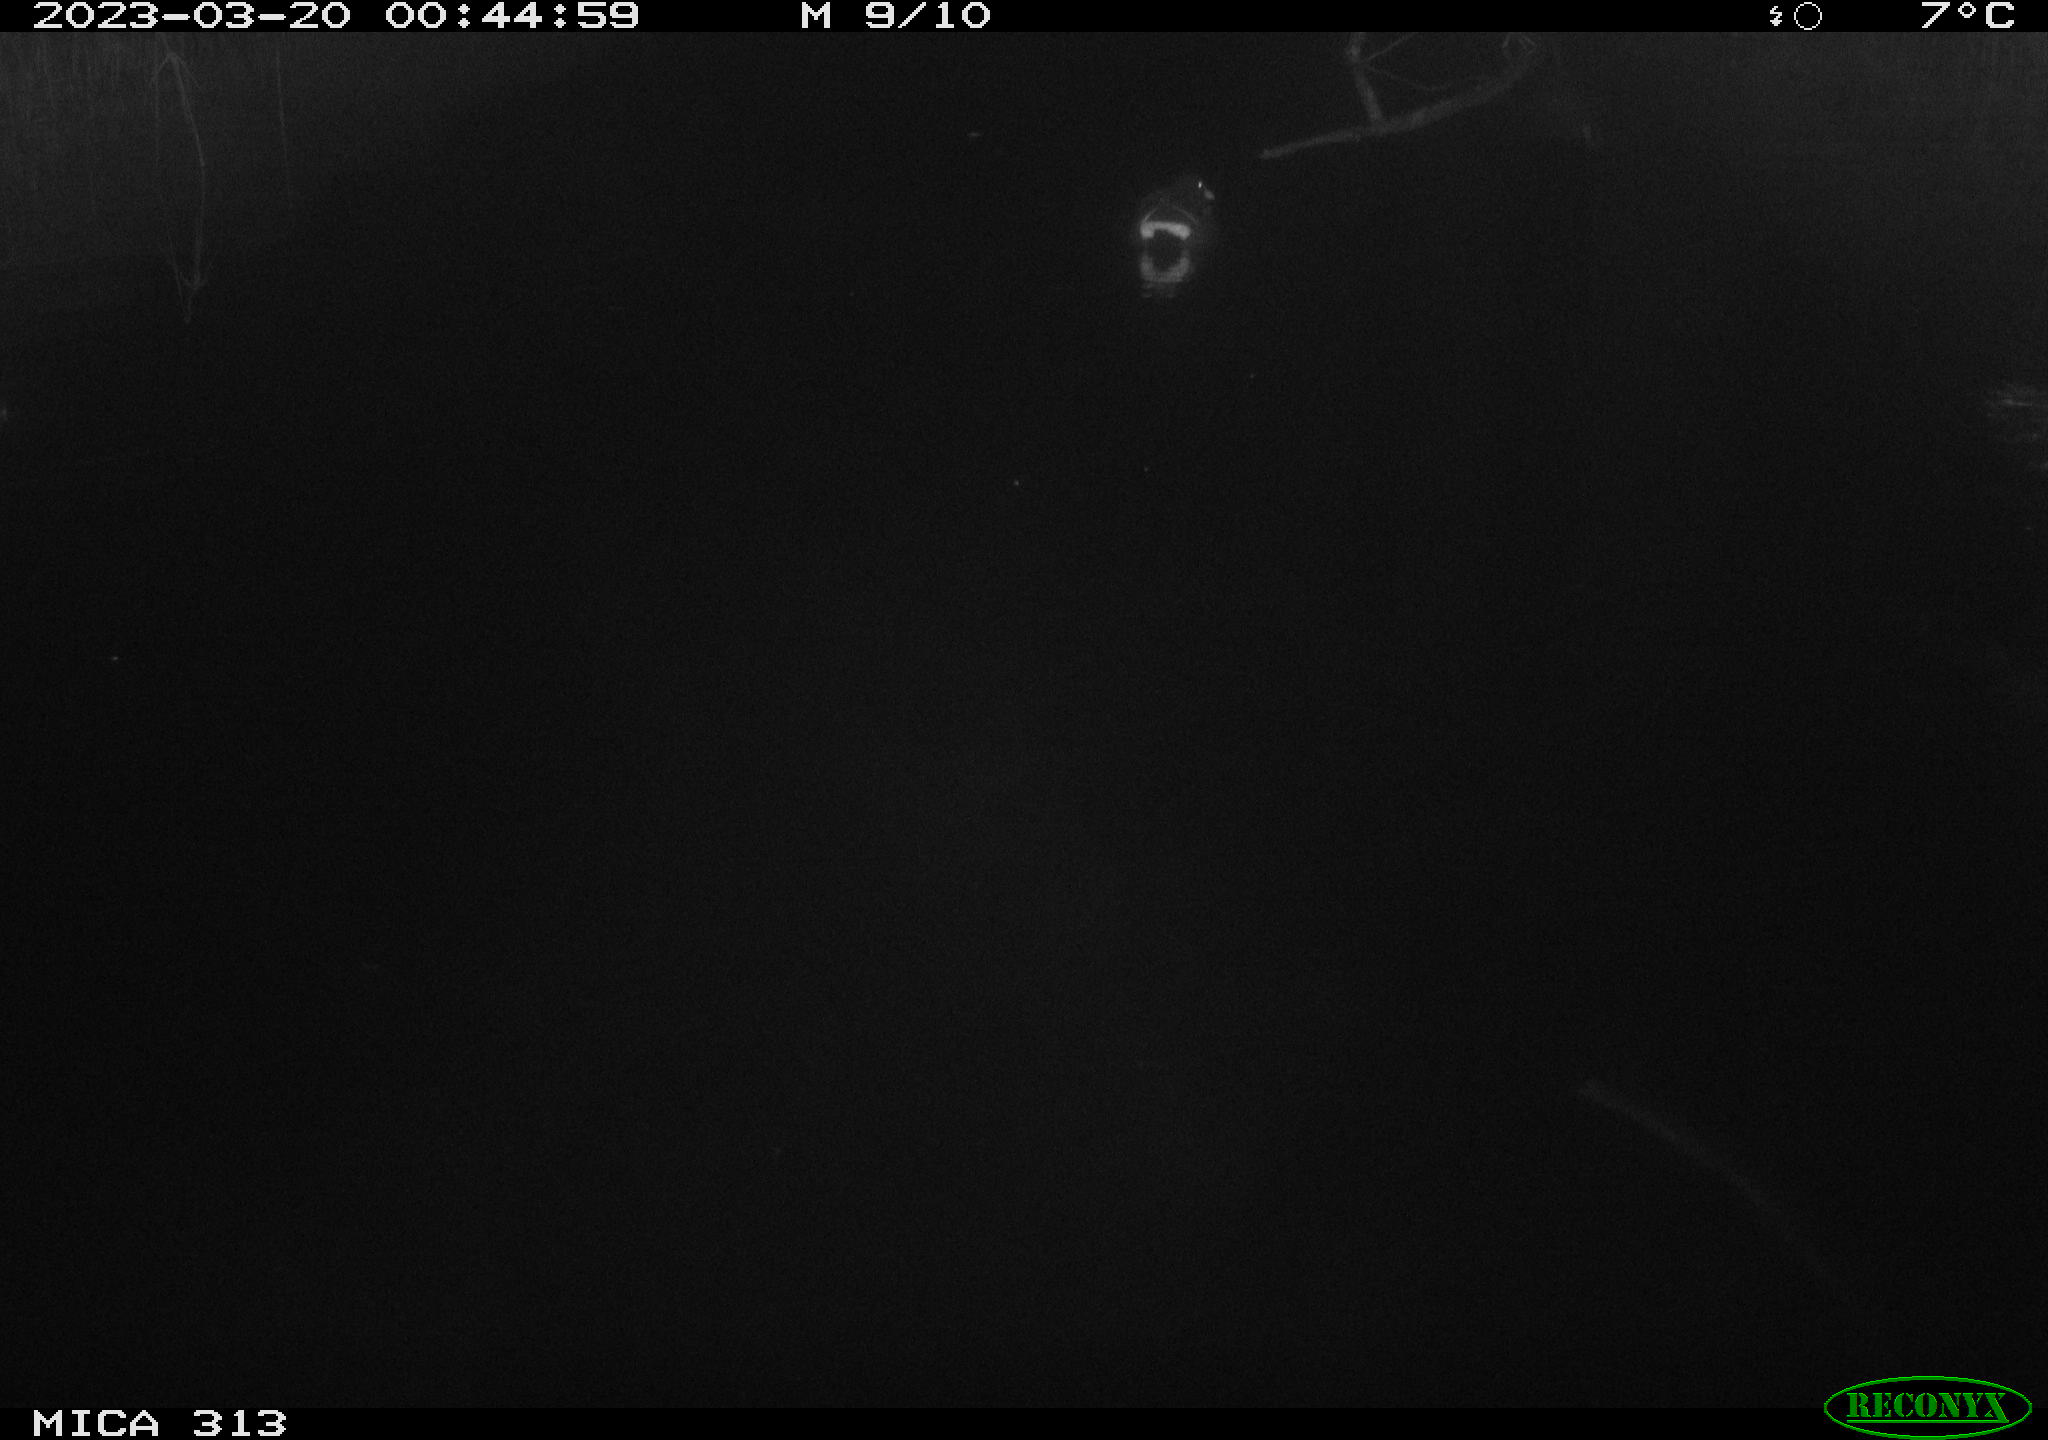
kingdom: Animalia
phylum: Chordata
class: Aves
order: Gruiformes
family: Rallidae
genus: Gallinula
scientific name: Gallinula chloropus
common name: Common moorhen
